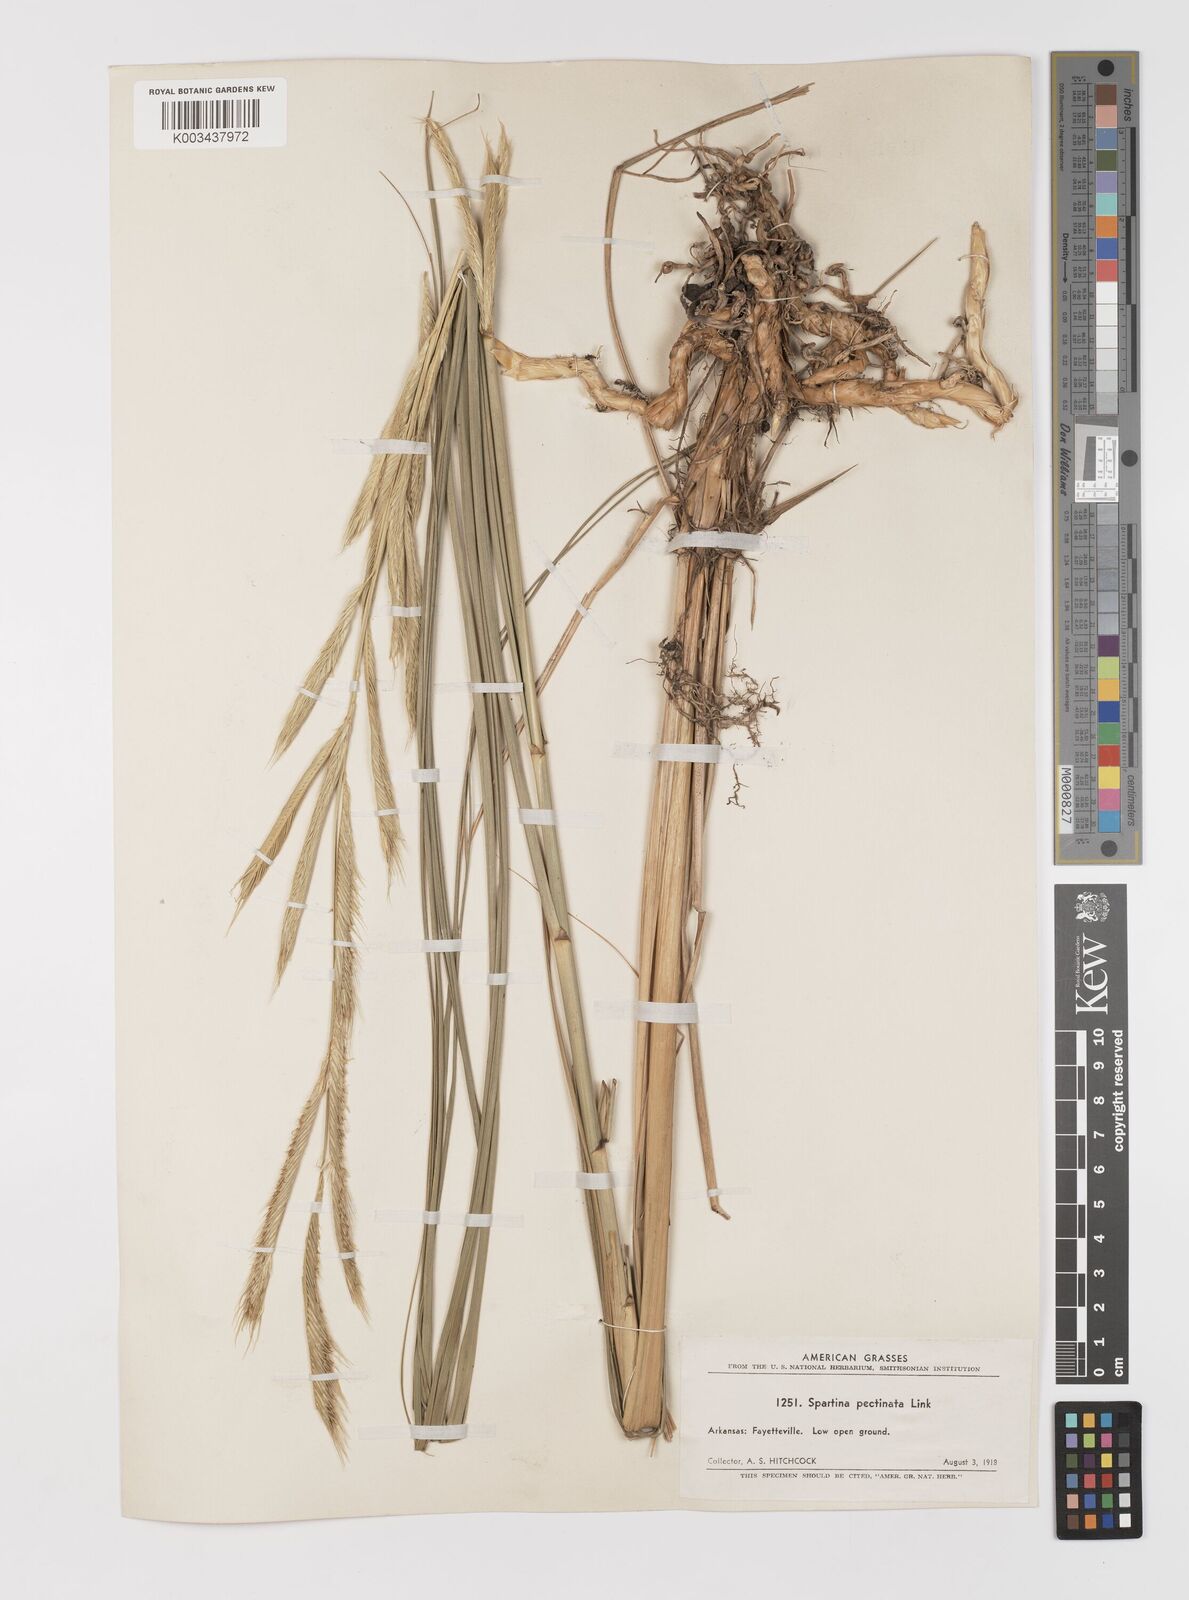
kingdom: Plantae
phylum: Tracheophyta
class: Liliopsida
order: Poales
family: Poaceae
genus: Sporobolus
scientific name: Sporobolus michauxianus
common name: Freshwater cordgrass
